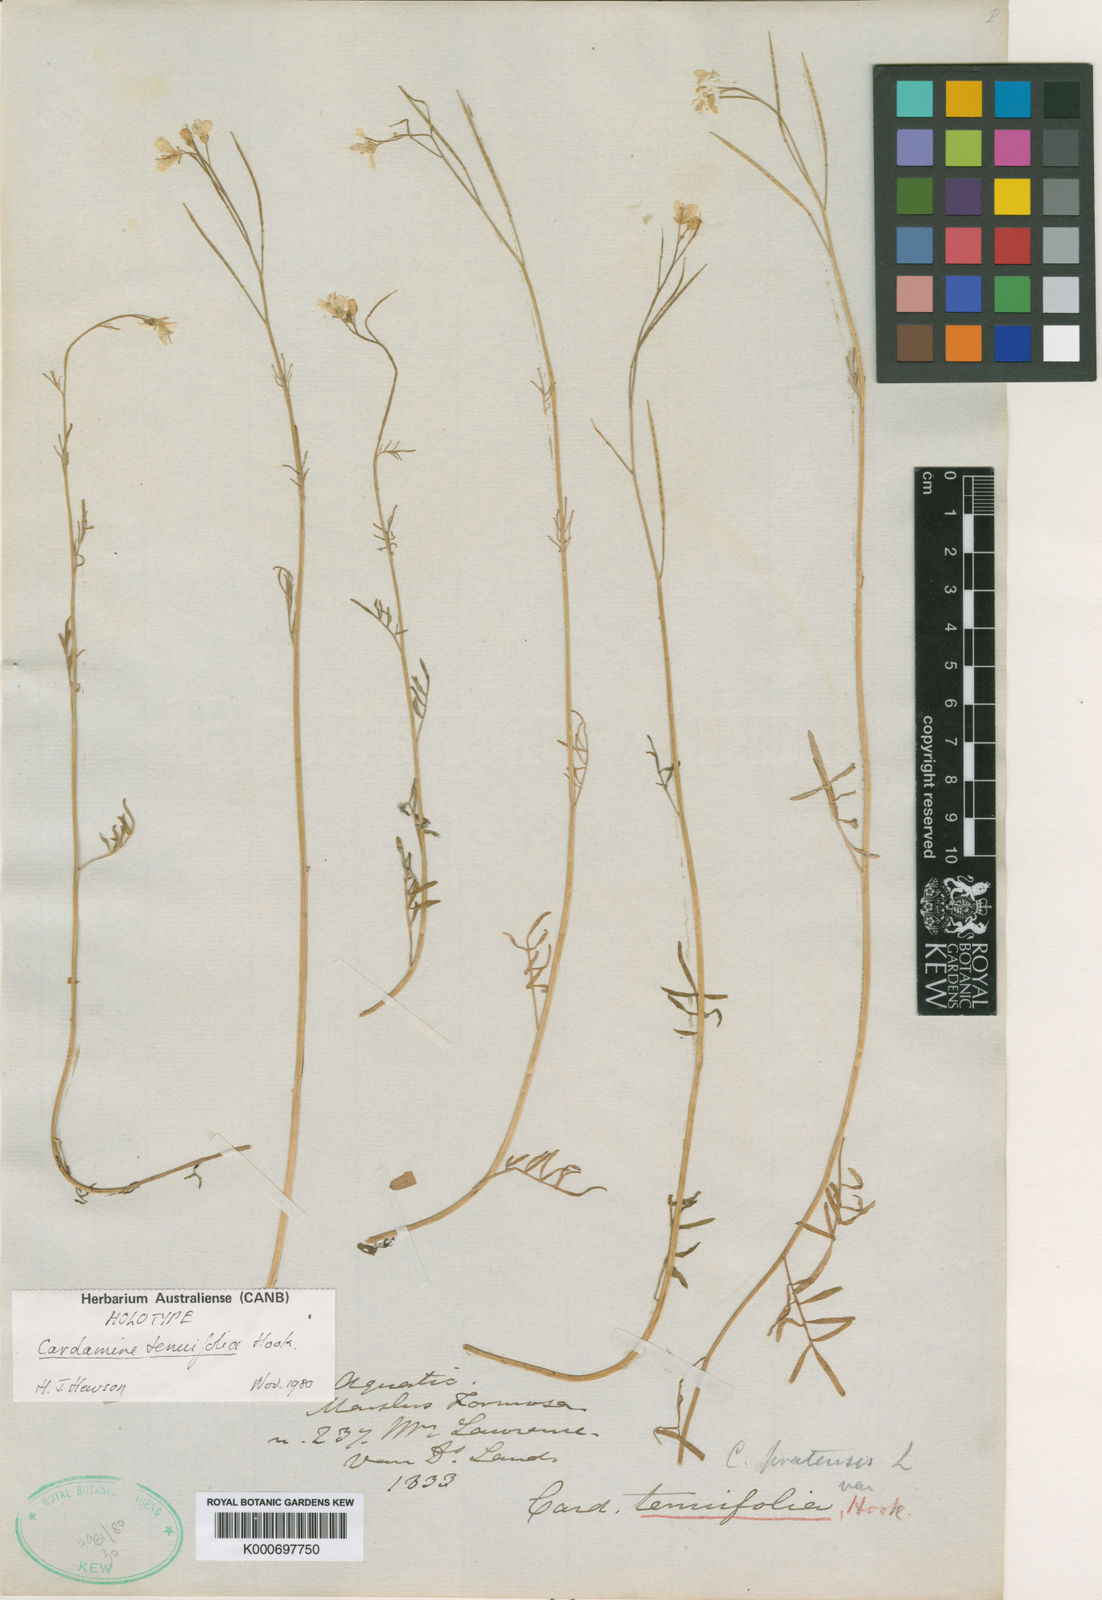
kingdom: Plantae
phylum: Tracheophyta
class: Magnoliopsida
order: Brassicales
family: Brassicaceae
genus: Cardamine
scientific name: Cardamine tenuifolia
